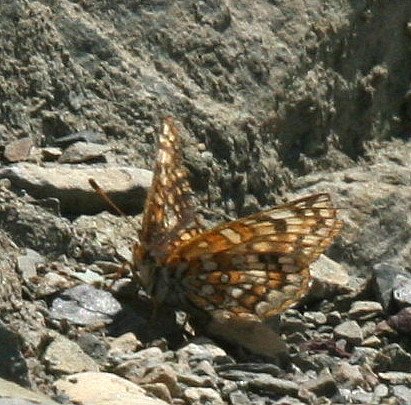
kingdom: Animalia
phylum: Arthropoda
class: Insecta
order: Lepidoptera
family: Nymphalidae
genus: Chlosyne
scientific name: Chlosyne palla
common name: Rockslide Checkerspot
